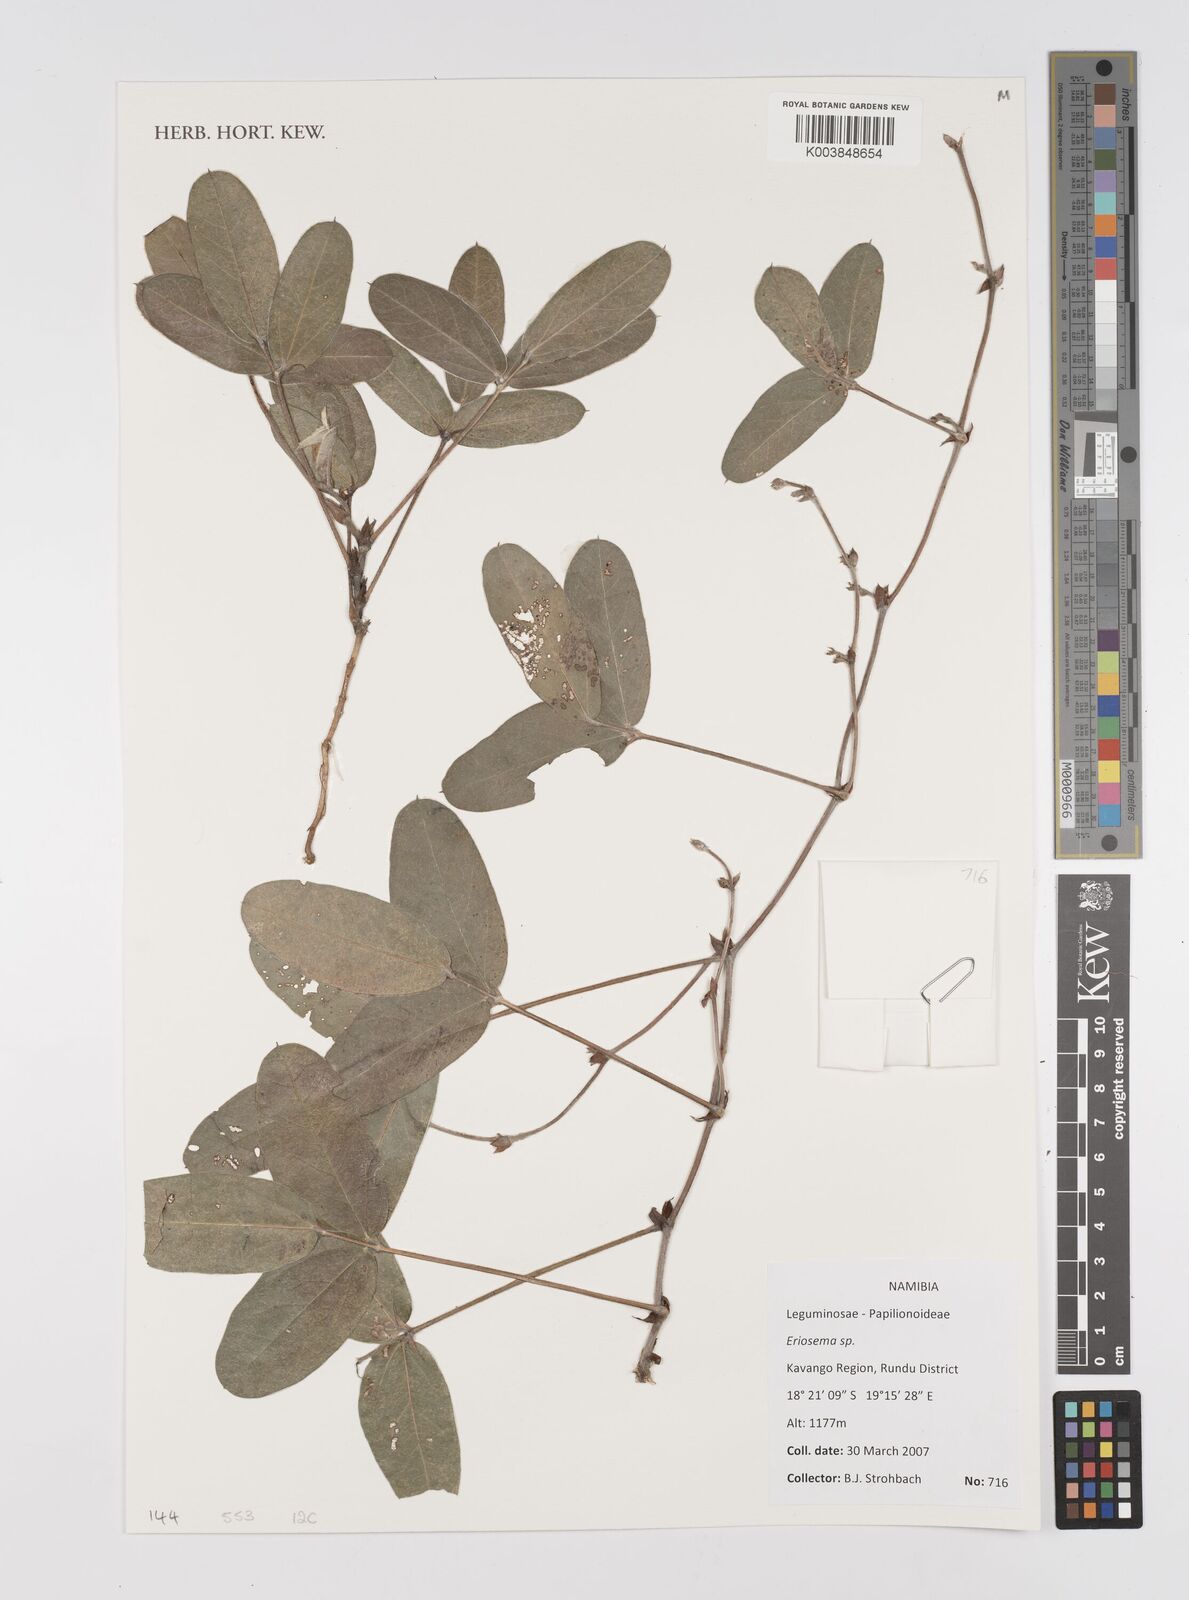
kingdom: Plantae
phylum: Tracheophyta
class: Magnoliopsida
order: Fabales
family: Fabaceae
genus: Eriosema
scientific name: Eriosema
